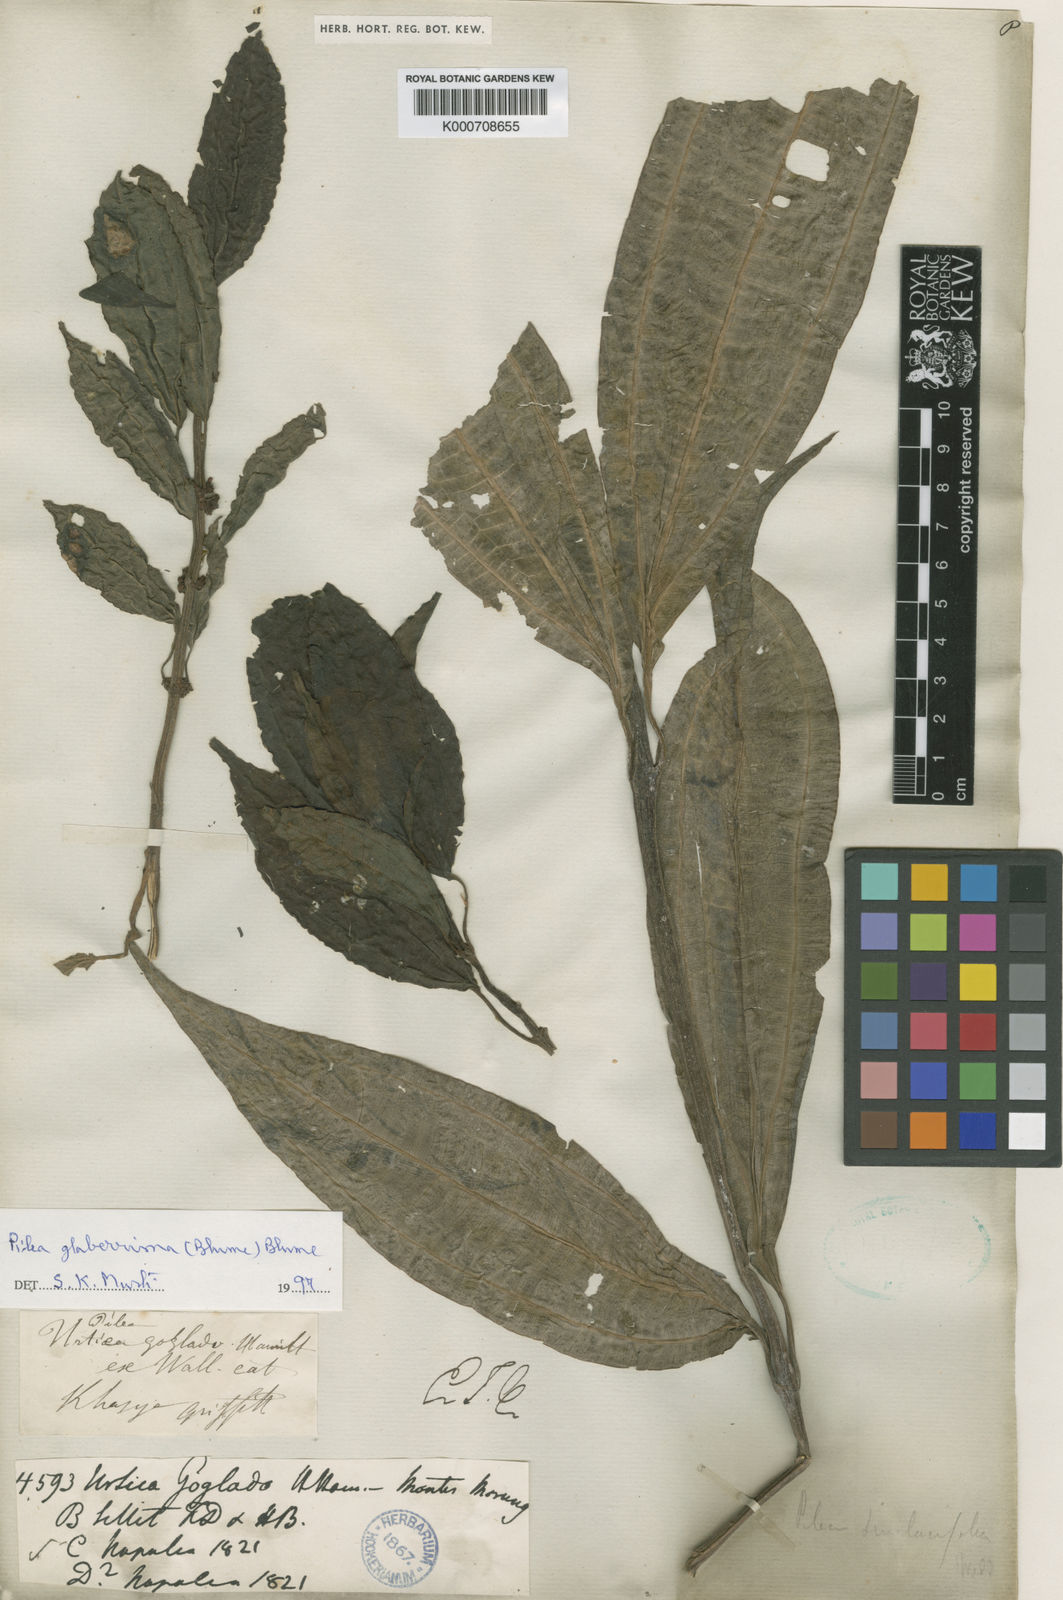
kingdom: Plantae
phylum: Tracheophyta
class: Magnoliopsida
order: Rosales
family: Urticaceae
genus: Pilea
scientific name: Pilea glaberrima
